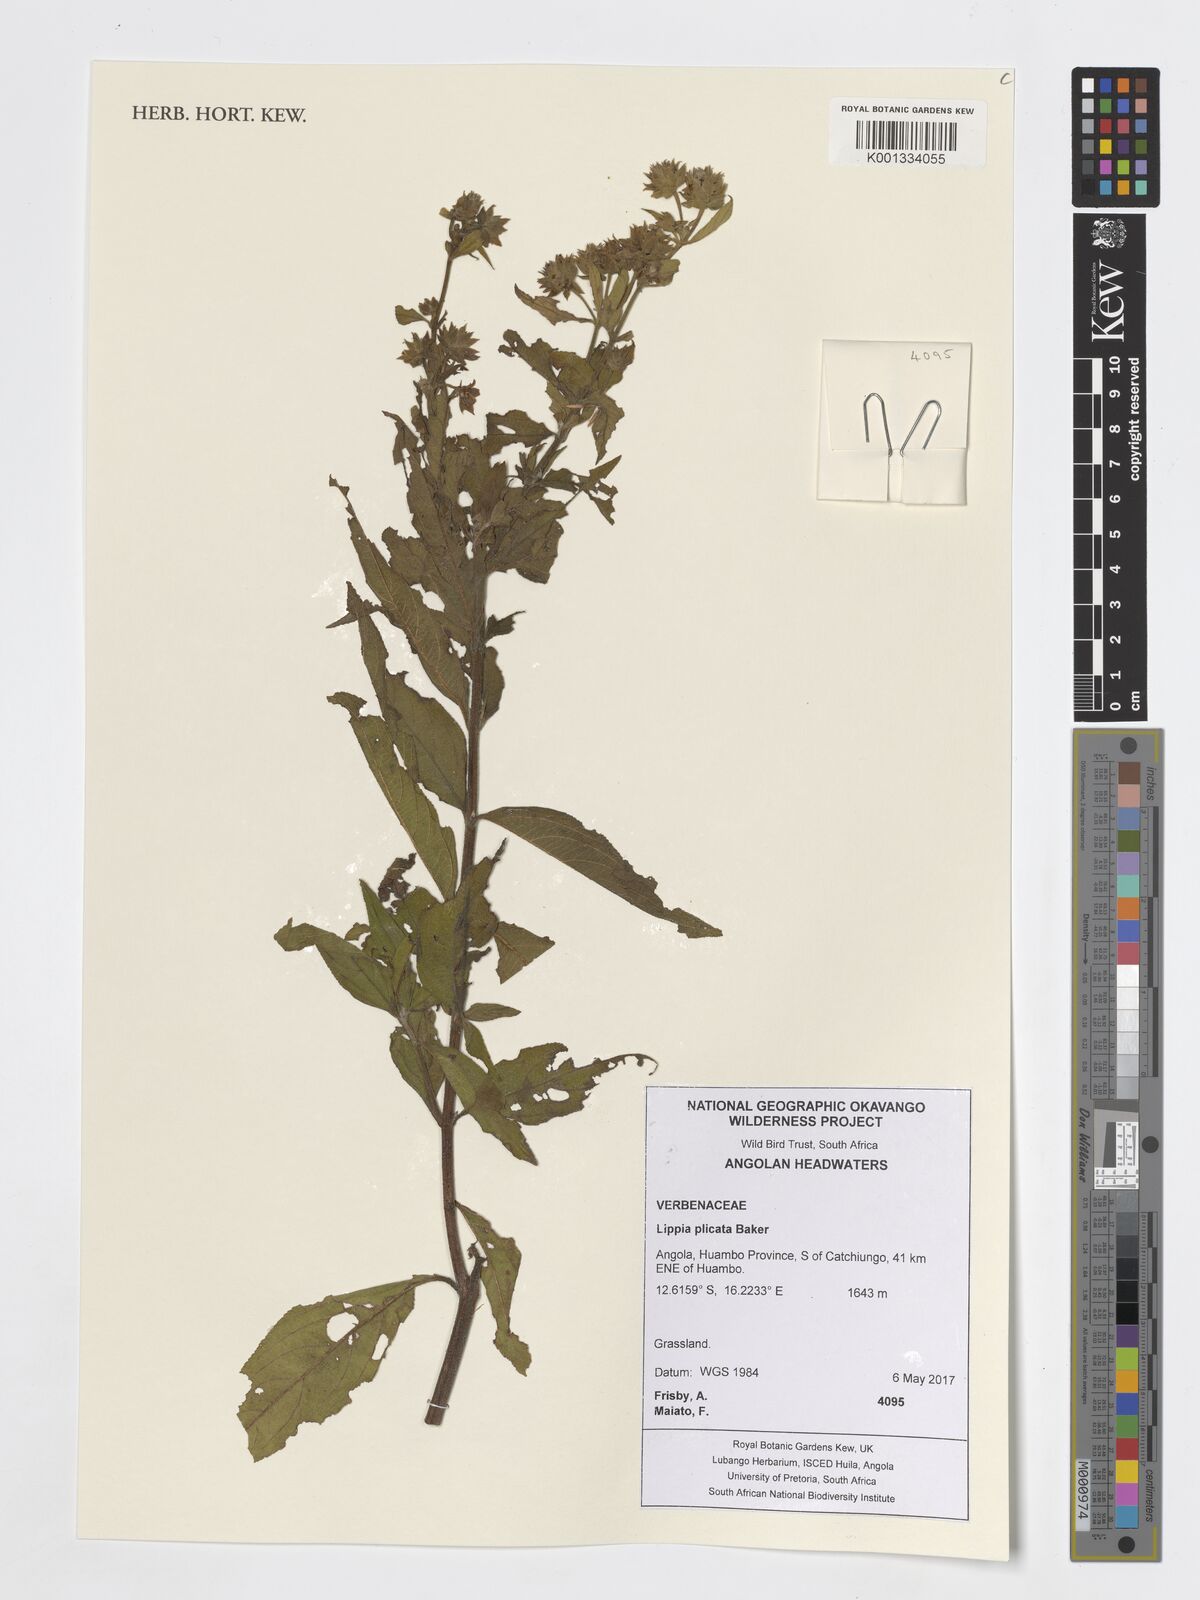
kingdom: Plantae
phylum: Tracheophyta
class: Magnoliopsida
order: Lamiales
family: Verbenaceae
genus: Lippia
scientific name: Lippia plicata
